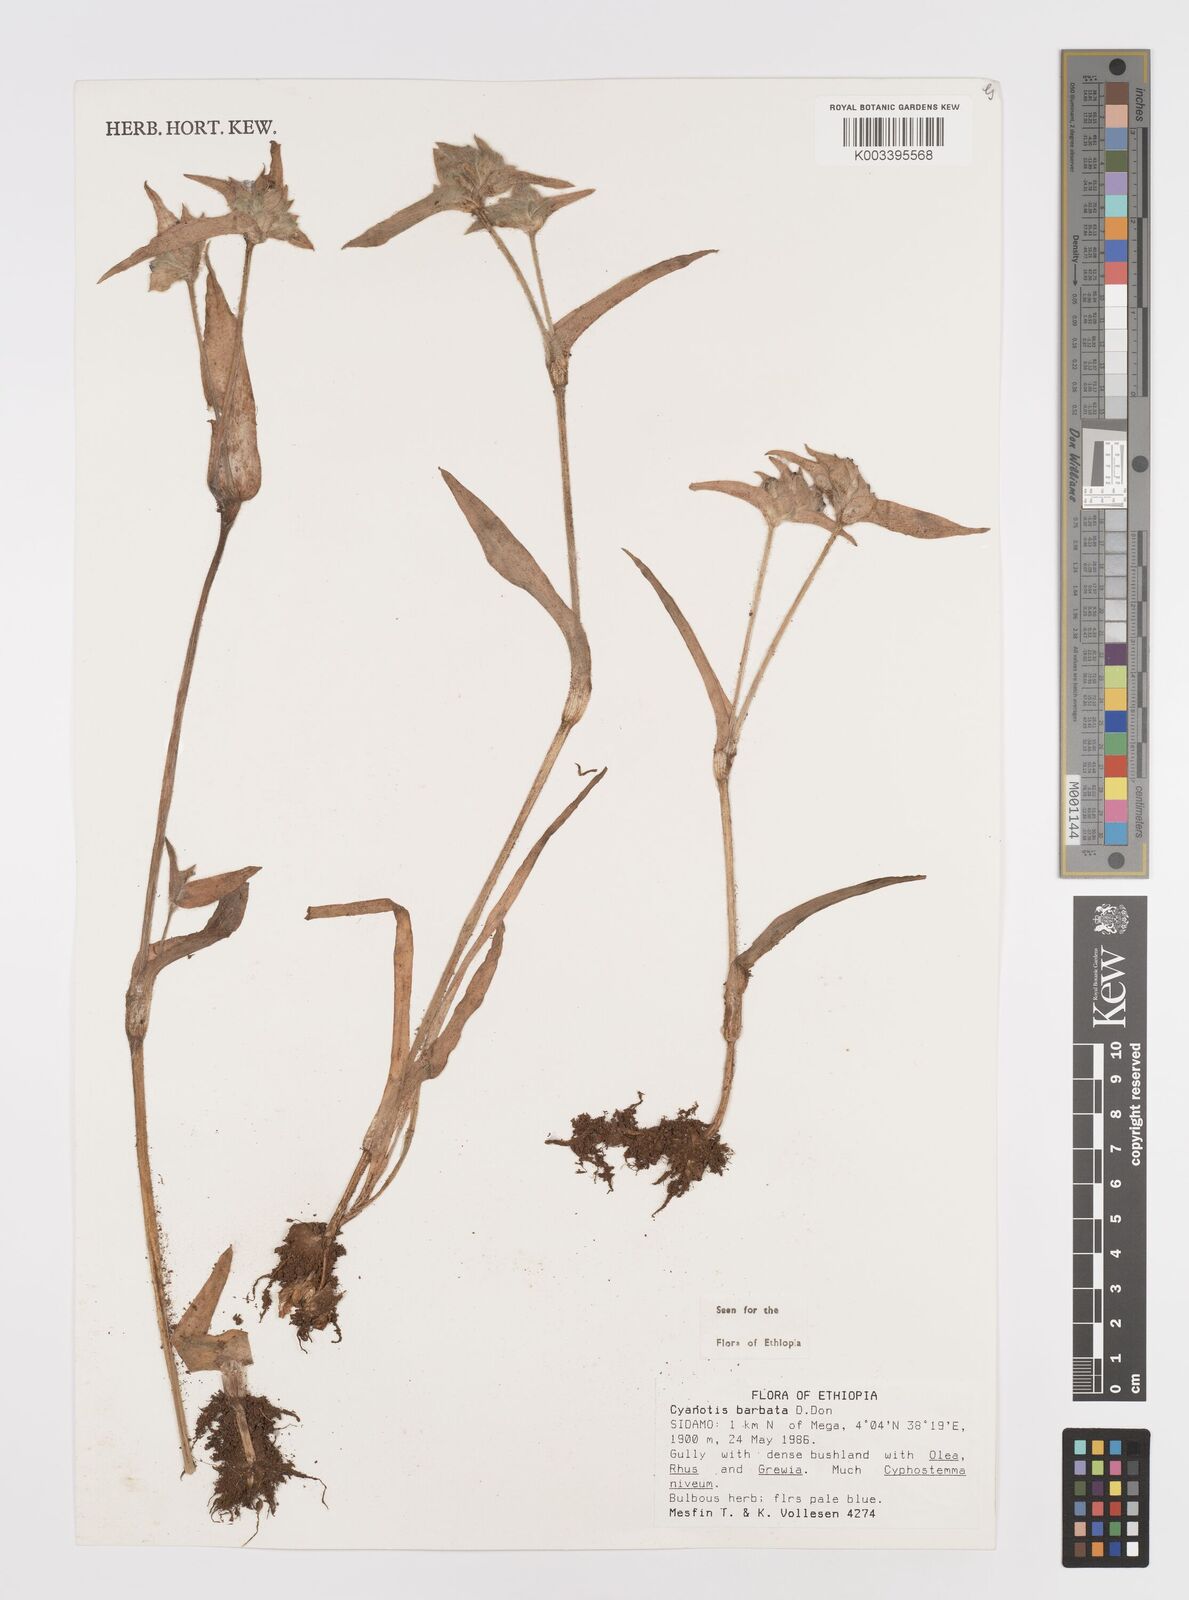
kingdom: Plantae
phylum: Tracheophyta
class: Liliopsida
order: Commelinales
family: Commelinaceae
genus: Cyanotis
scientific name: Cyanotis vaga
